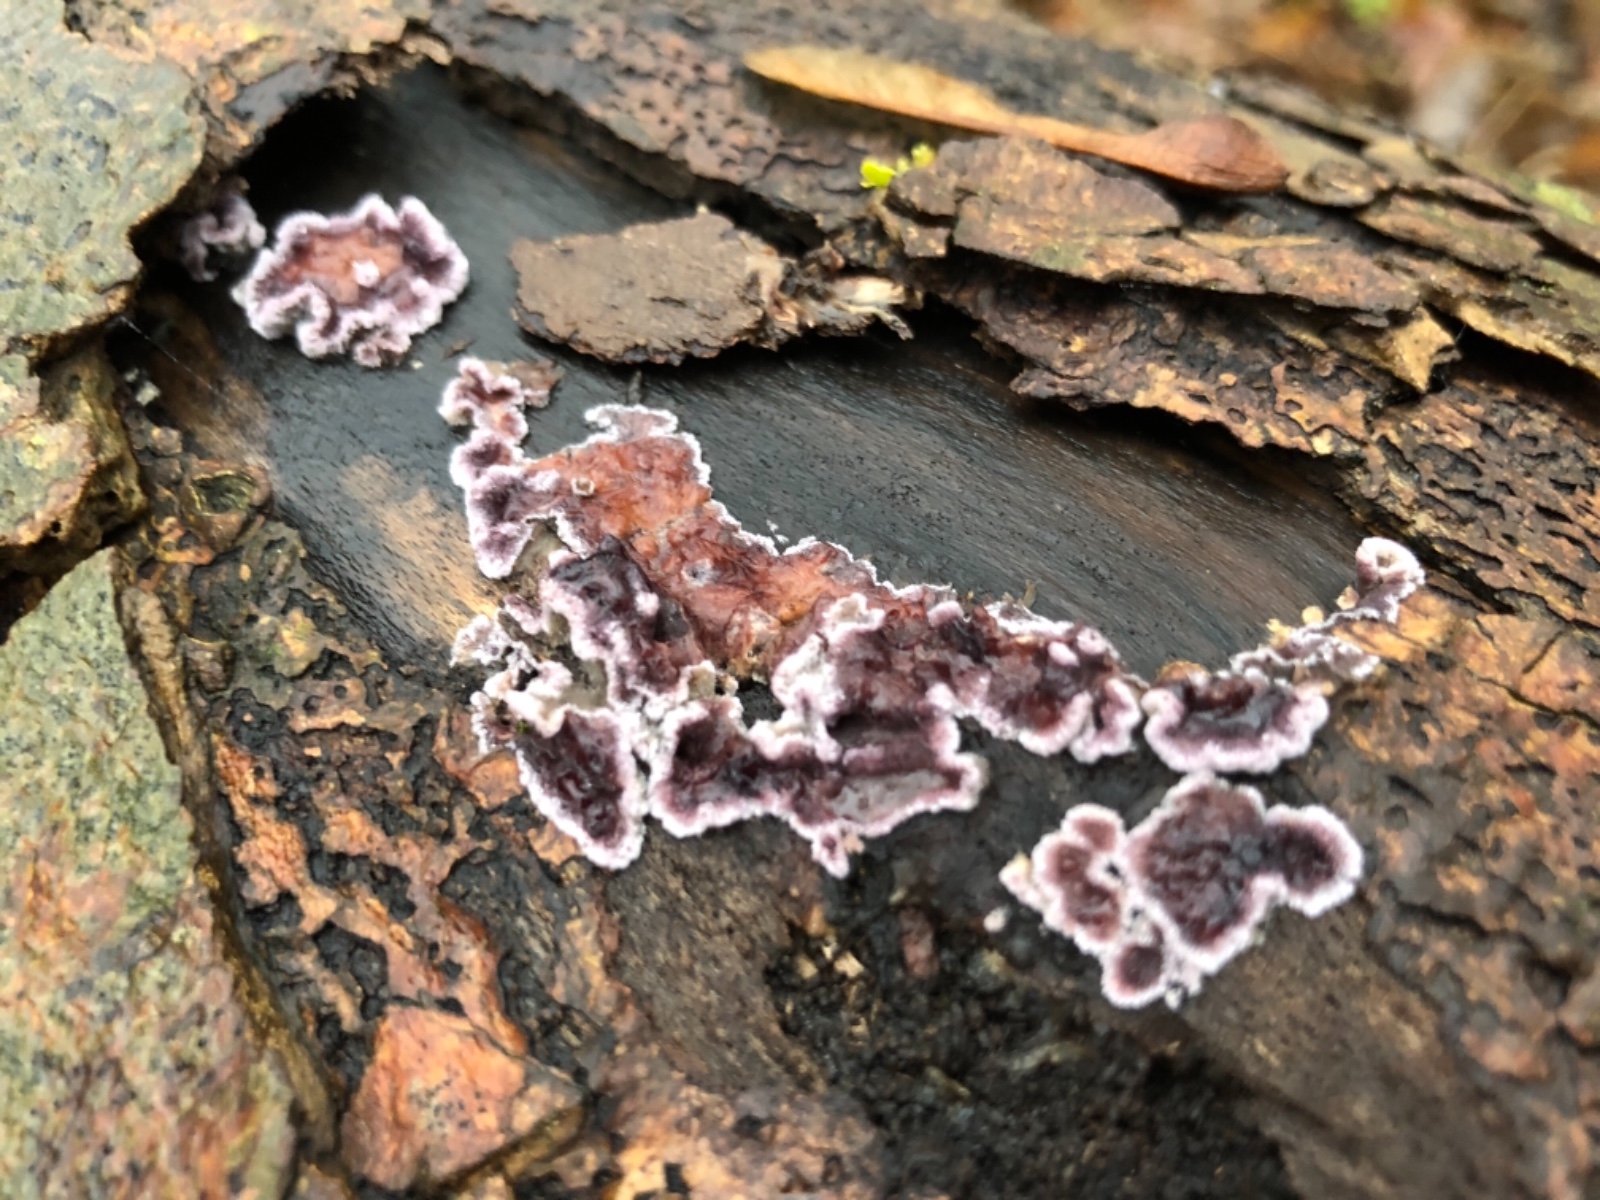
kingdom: Fungi
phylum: Basidiomycota
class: Agaricomycetes
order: Agaricales
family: Cyphellaceae
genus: Chondrostereum
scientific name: Chondrostereum purpureum
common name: purpurlædersvamp
